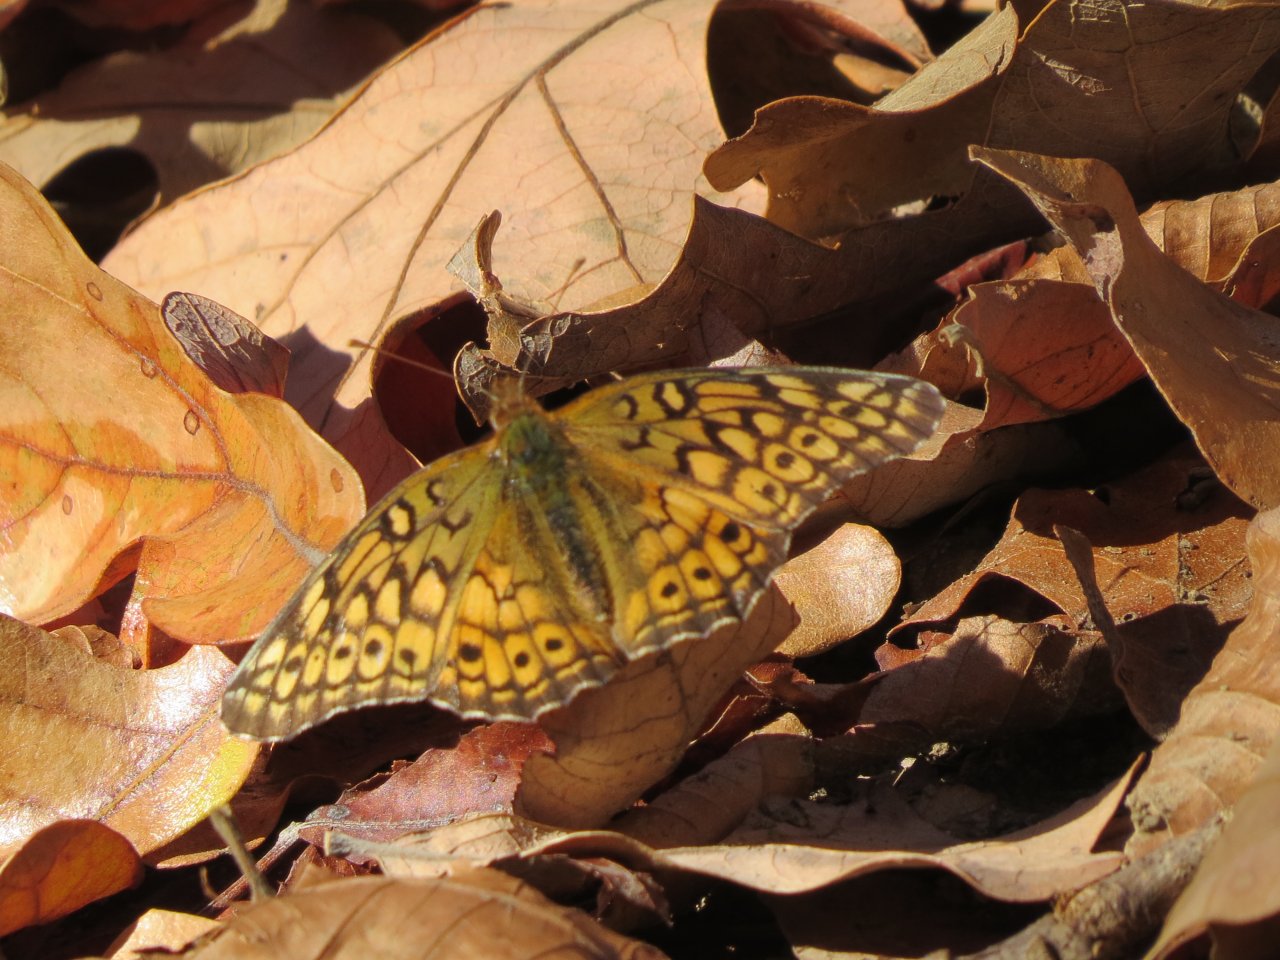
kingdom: Animalia
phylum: Arthropoda
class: Insecta
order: Lepidoptera
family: Nymphalidae
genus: Euptoieta
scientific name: Euptoieta claudia
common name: Variegated Fritillary
